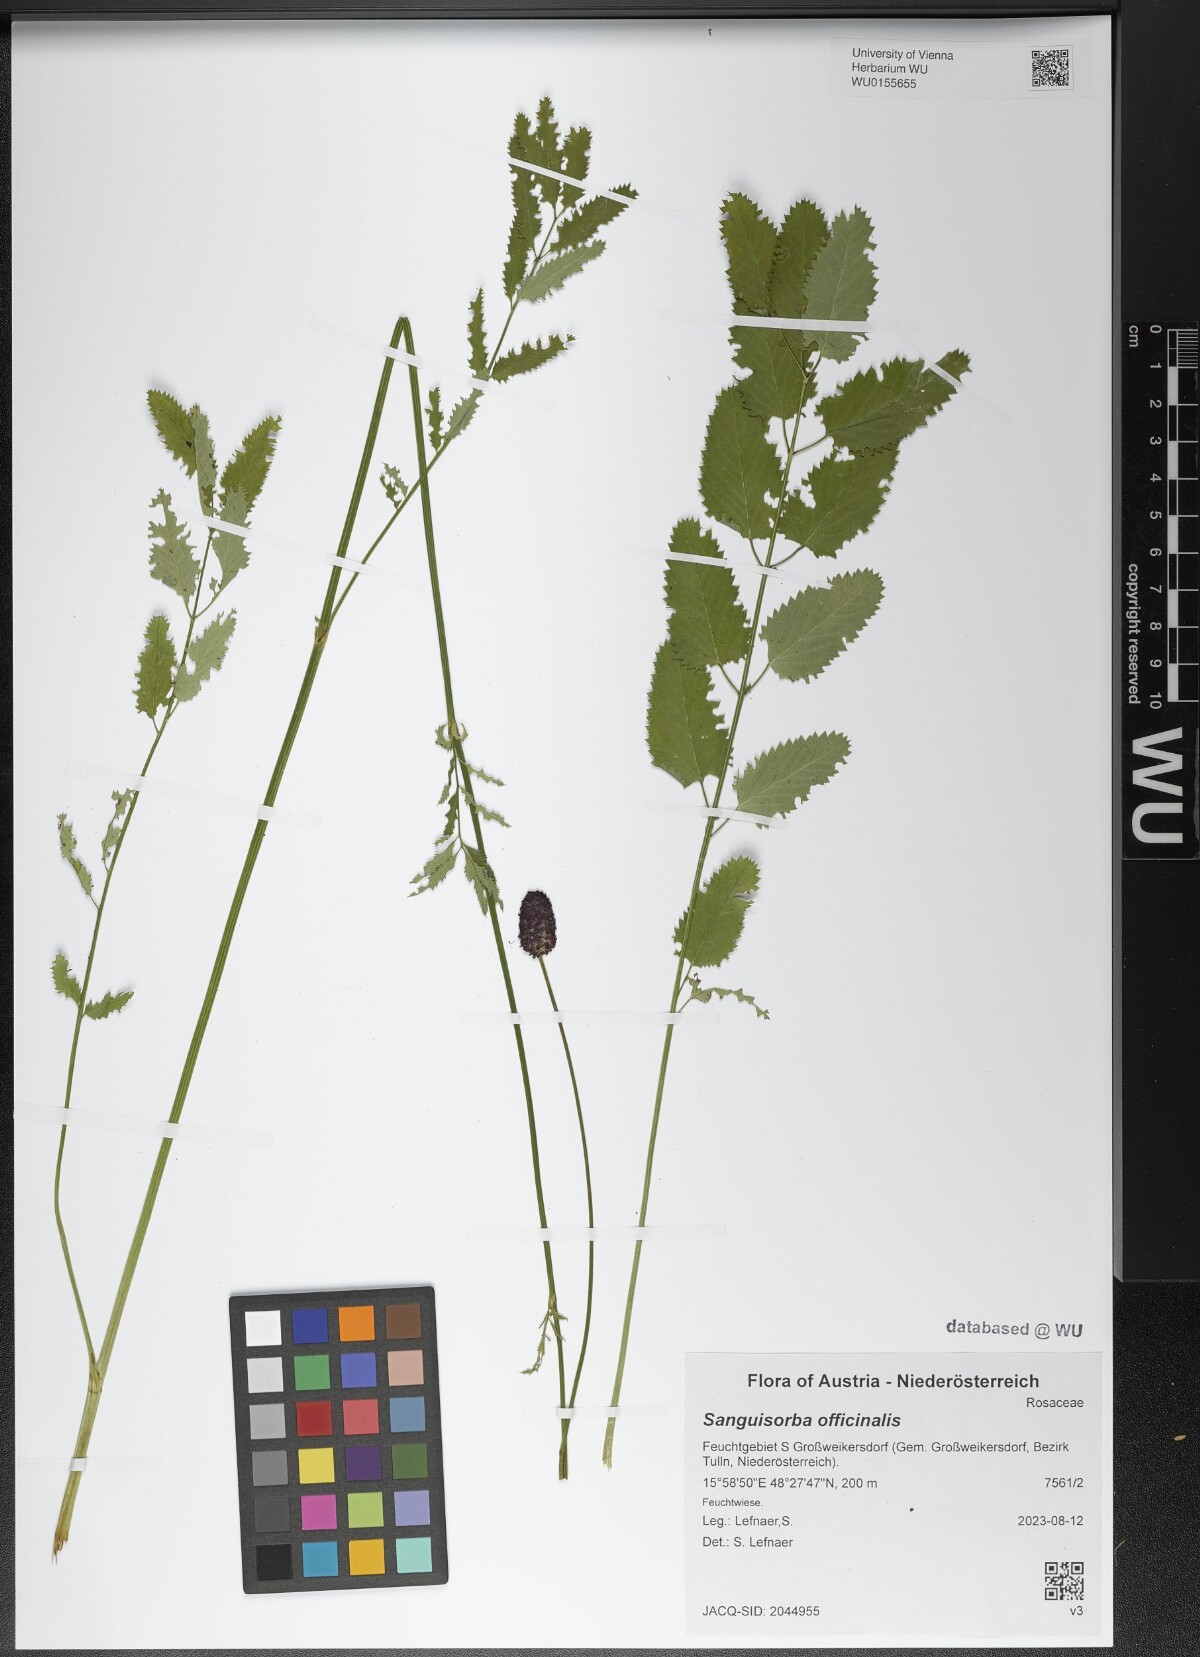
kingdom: Plantae
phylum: Tracheophyta
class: Magnoliopsida
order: Rosales
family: Rosaceae
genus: Sanguisorba
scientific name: Sanguisorba officinalis
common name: Great burnet
